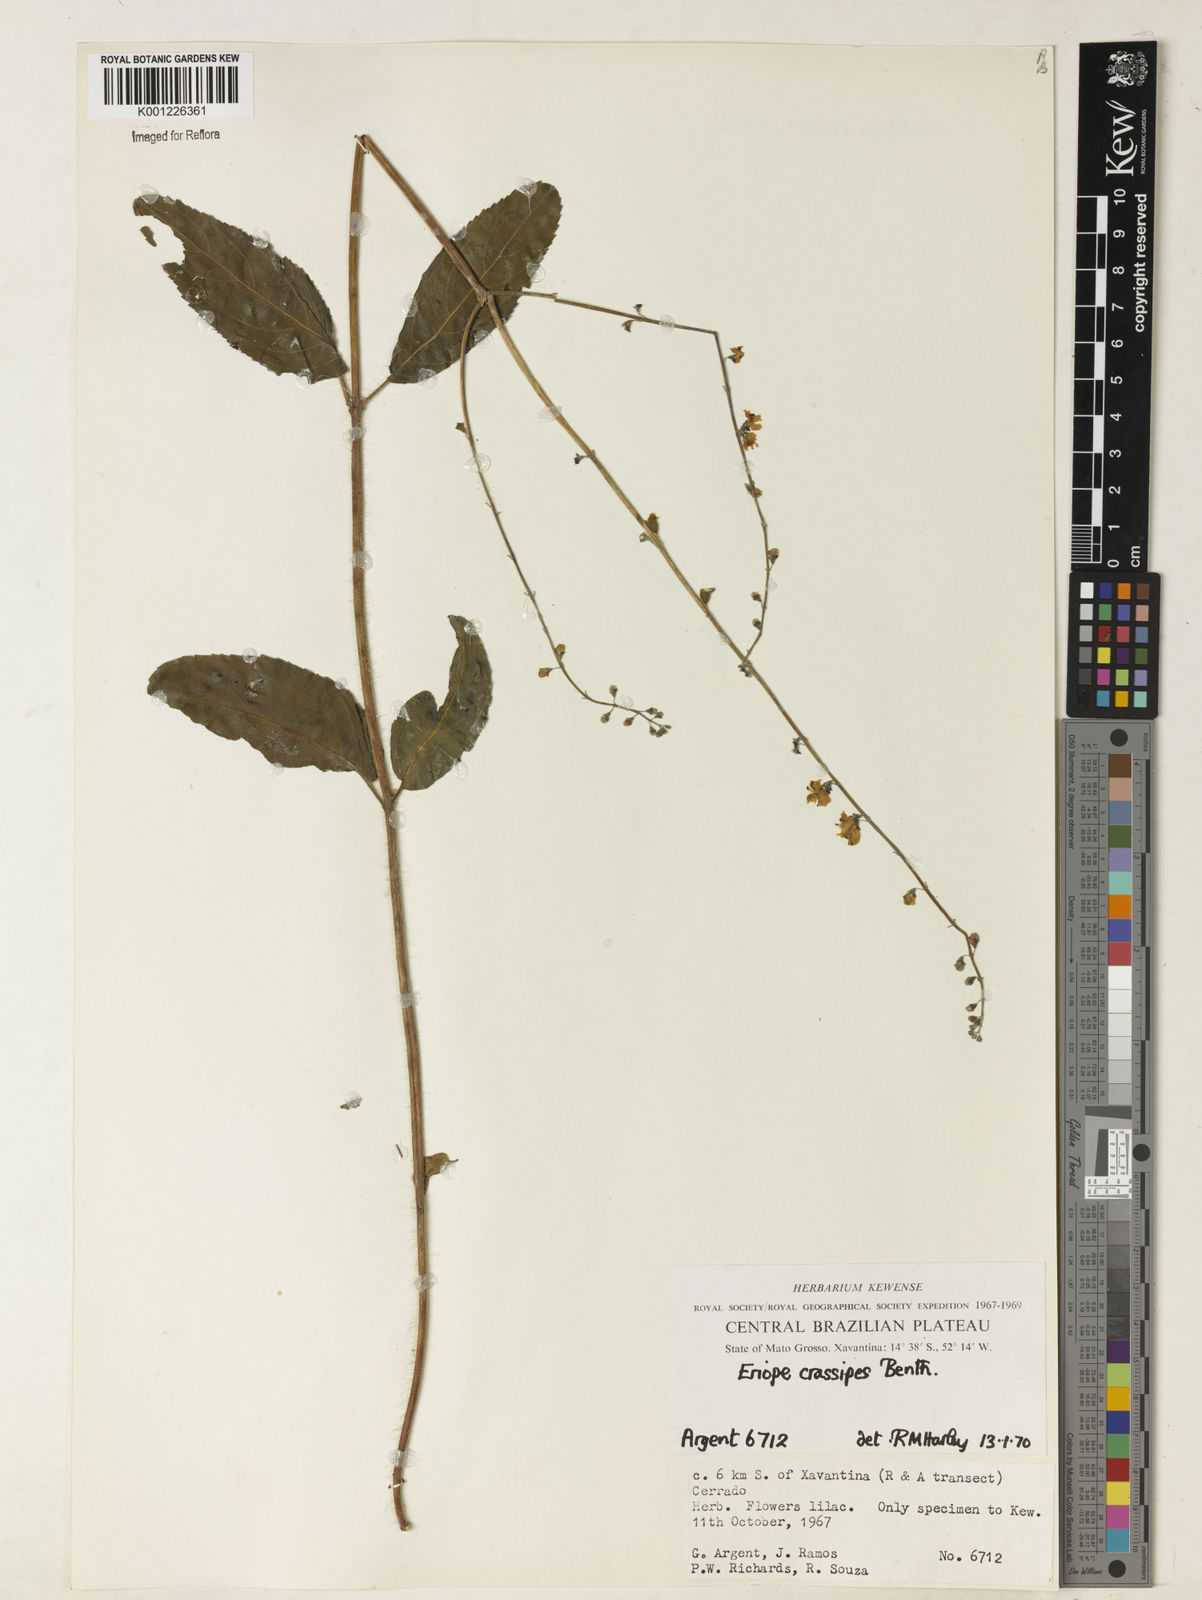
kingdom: Plantae
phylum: Tracheophyta
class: Magnoliopsida
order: Lamiales
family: Lamiaceae
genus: Eriope
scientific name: Eriope crassipes
